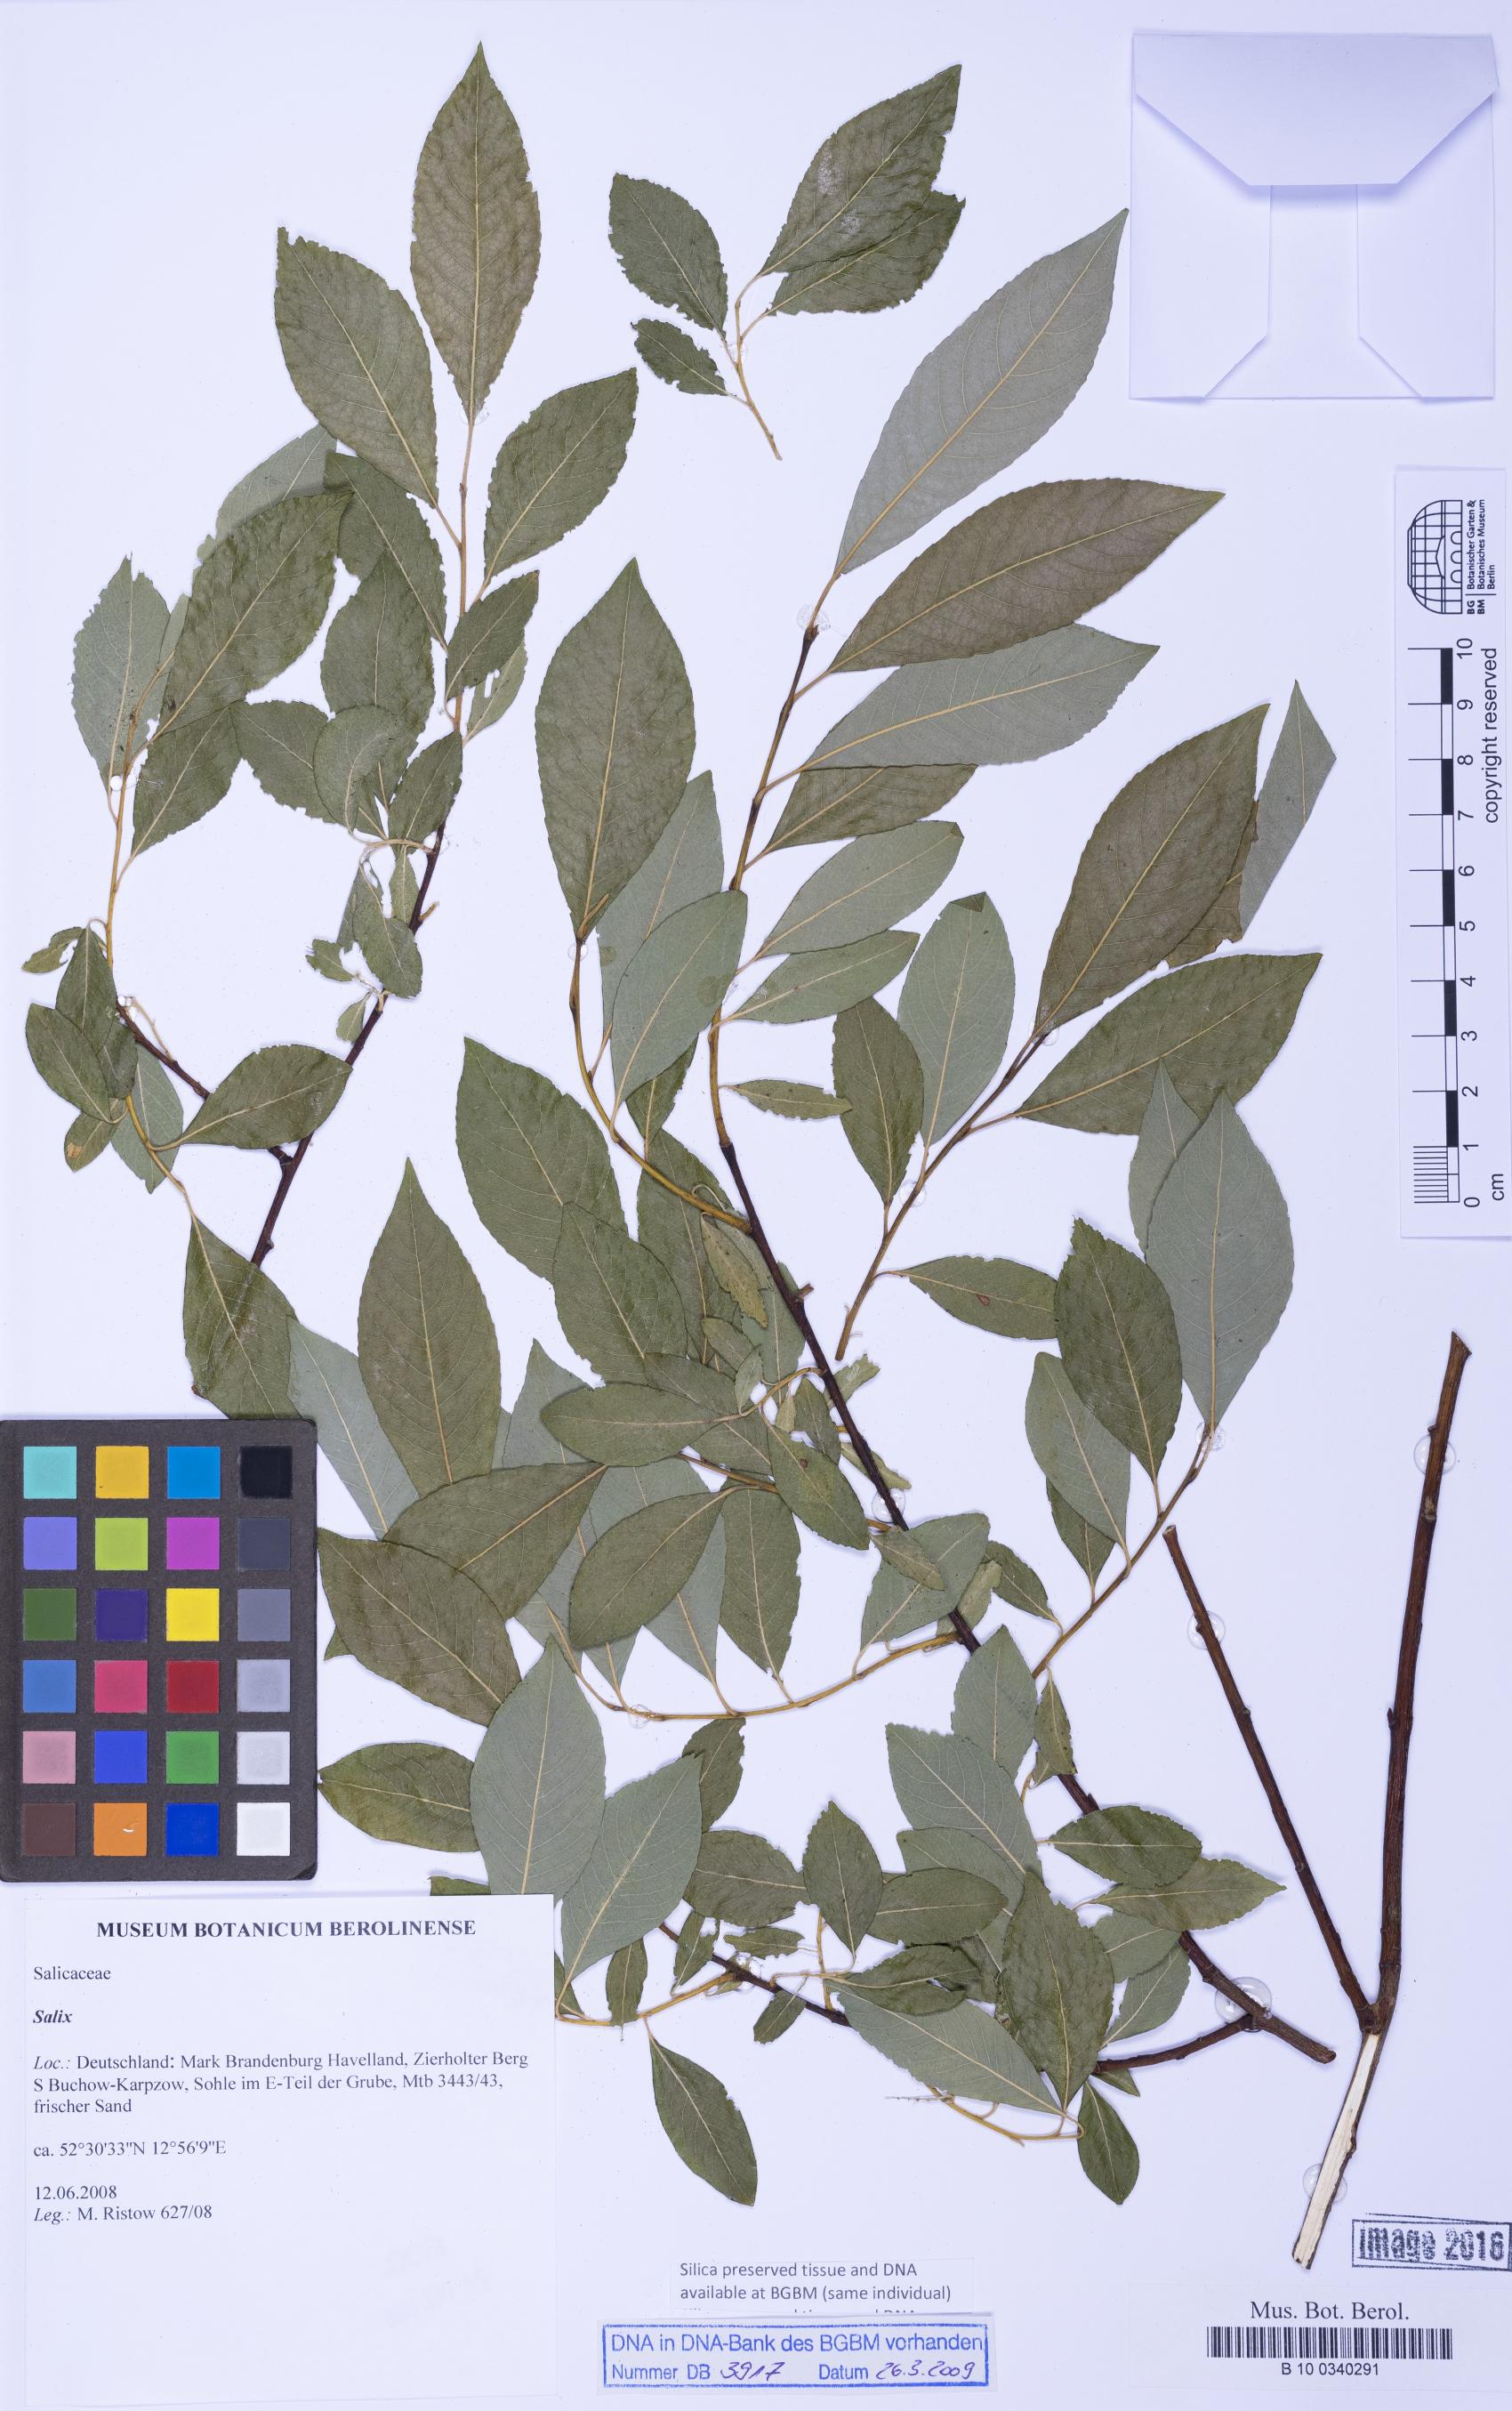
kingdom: Plantae
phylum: Tracheophyta
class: Magnoliopsida
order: Malpighiales
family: Salicaceae
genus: Salix
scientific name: Salix
